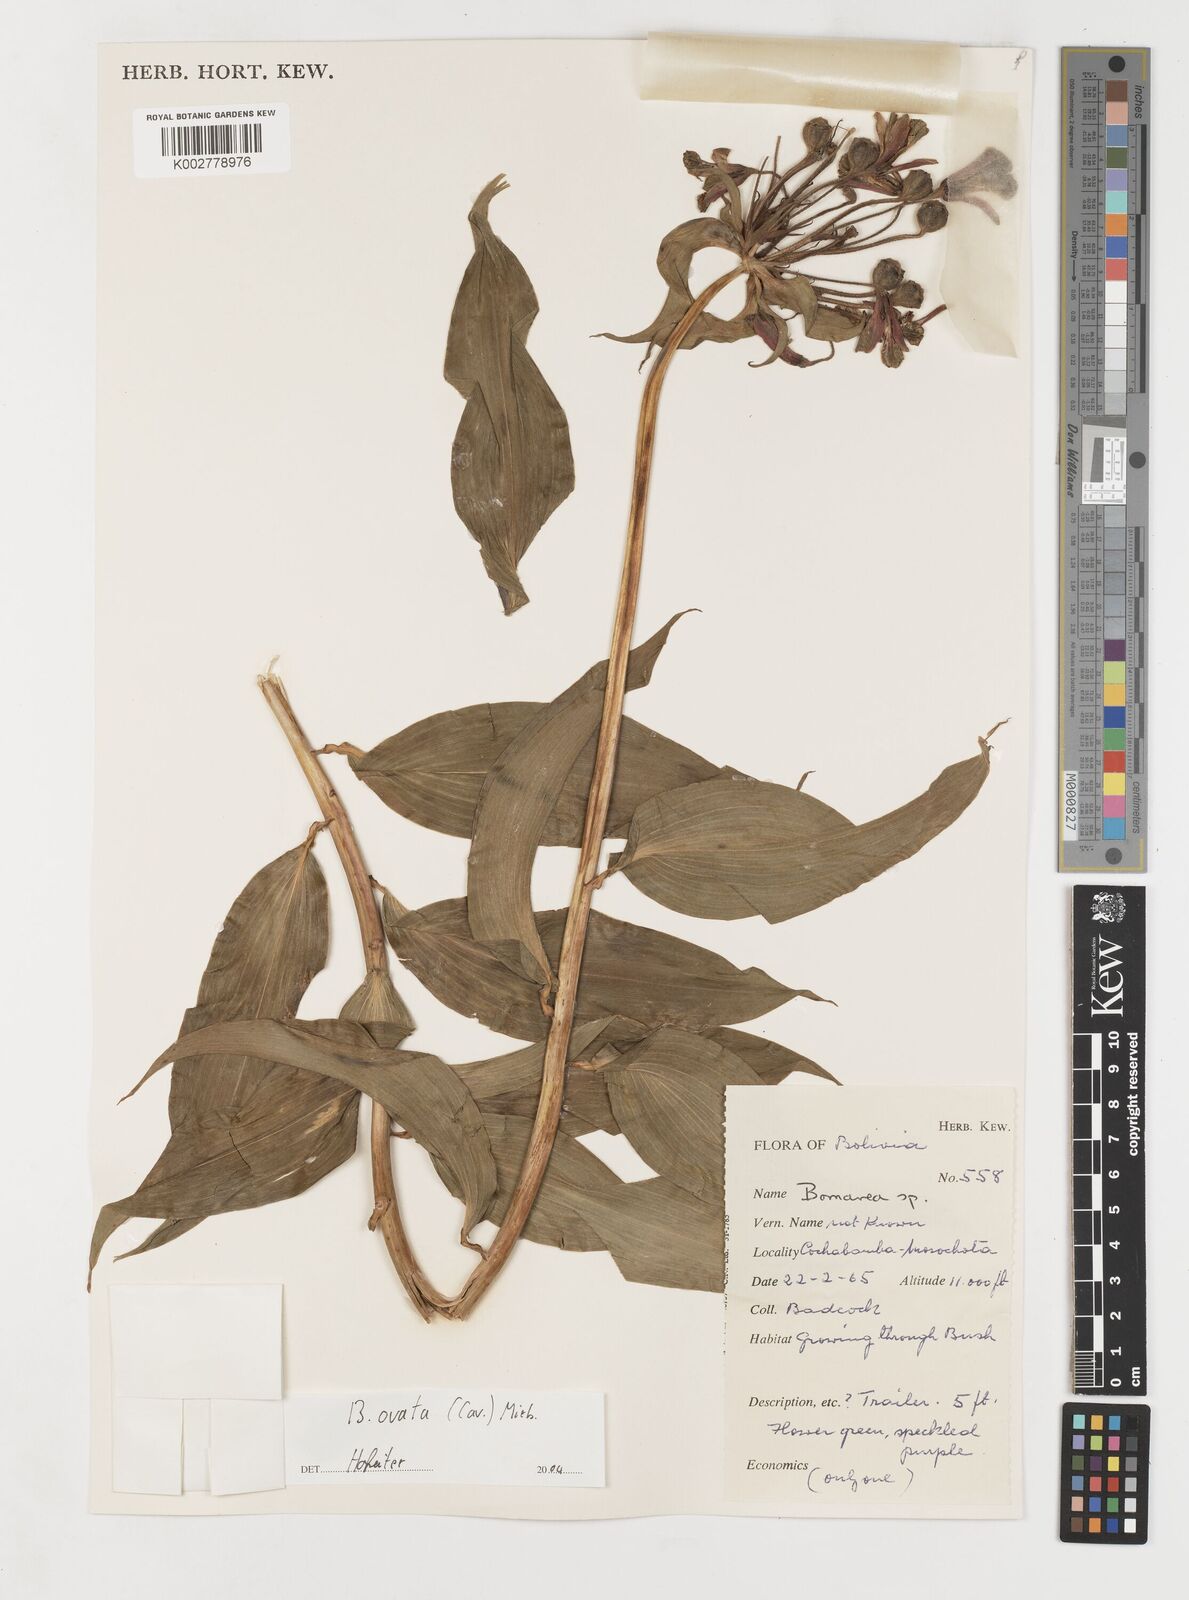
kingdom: Plantae
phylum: Tracheophyta
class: Liliopsida
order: Liliales
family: Alstroemeriaceae
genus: Bomarea
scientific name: Bomarea ovata
